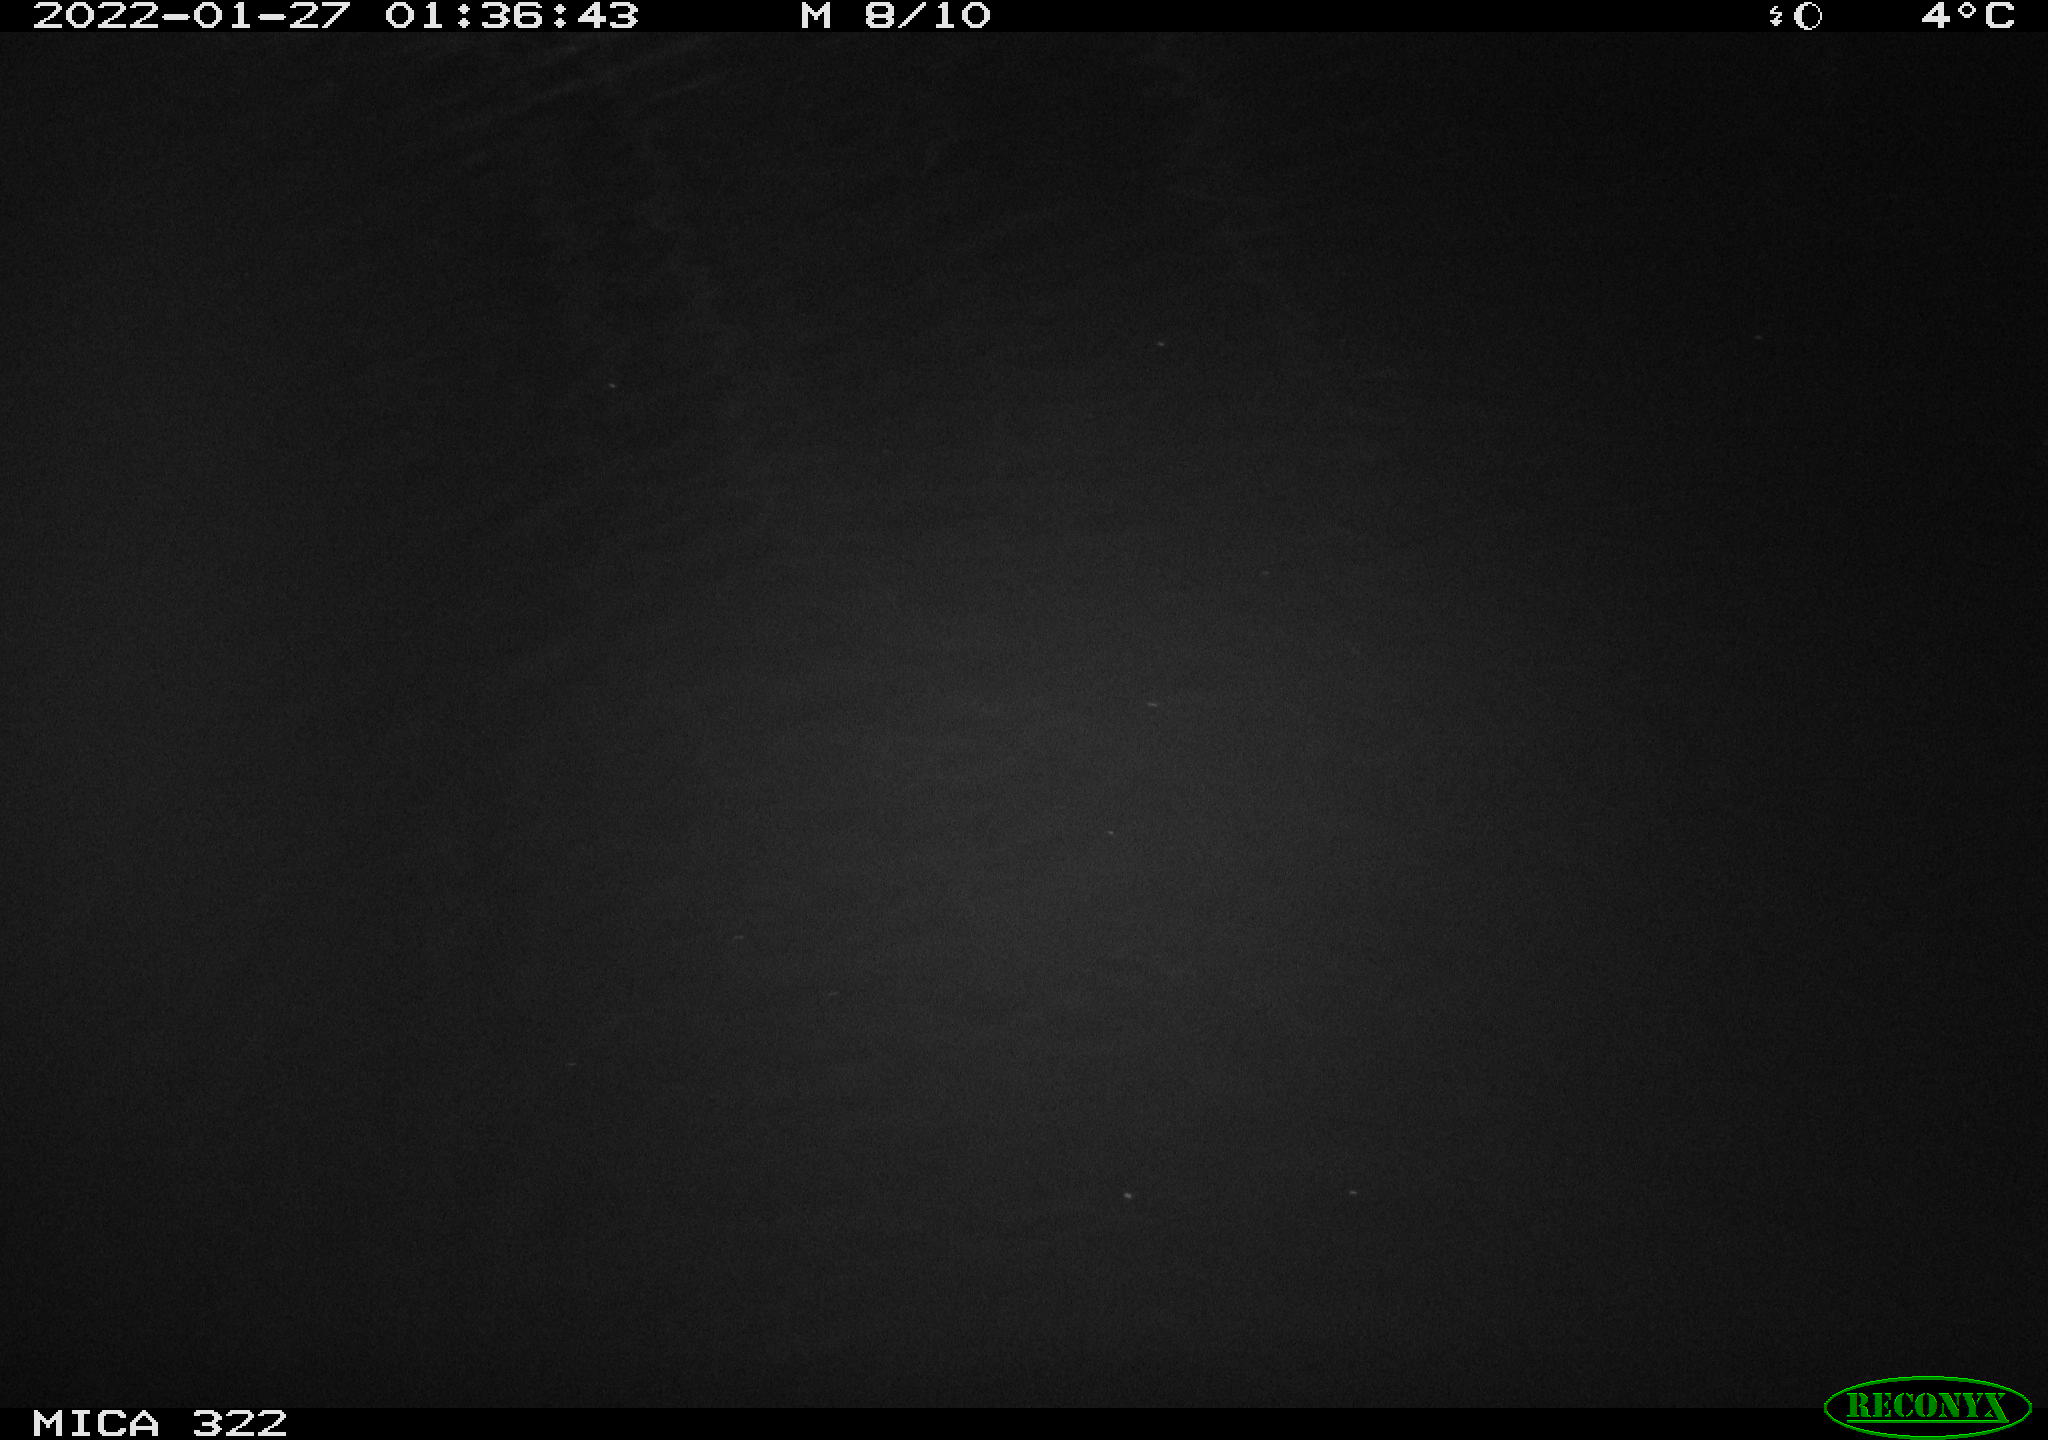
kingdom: Animalia
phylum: Chordata
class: Mammalia
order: Rodentia
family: Cricetidae
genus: Ondatra
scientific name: Ondatra zibethicus
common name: Muskrat
